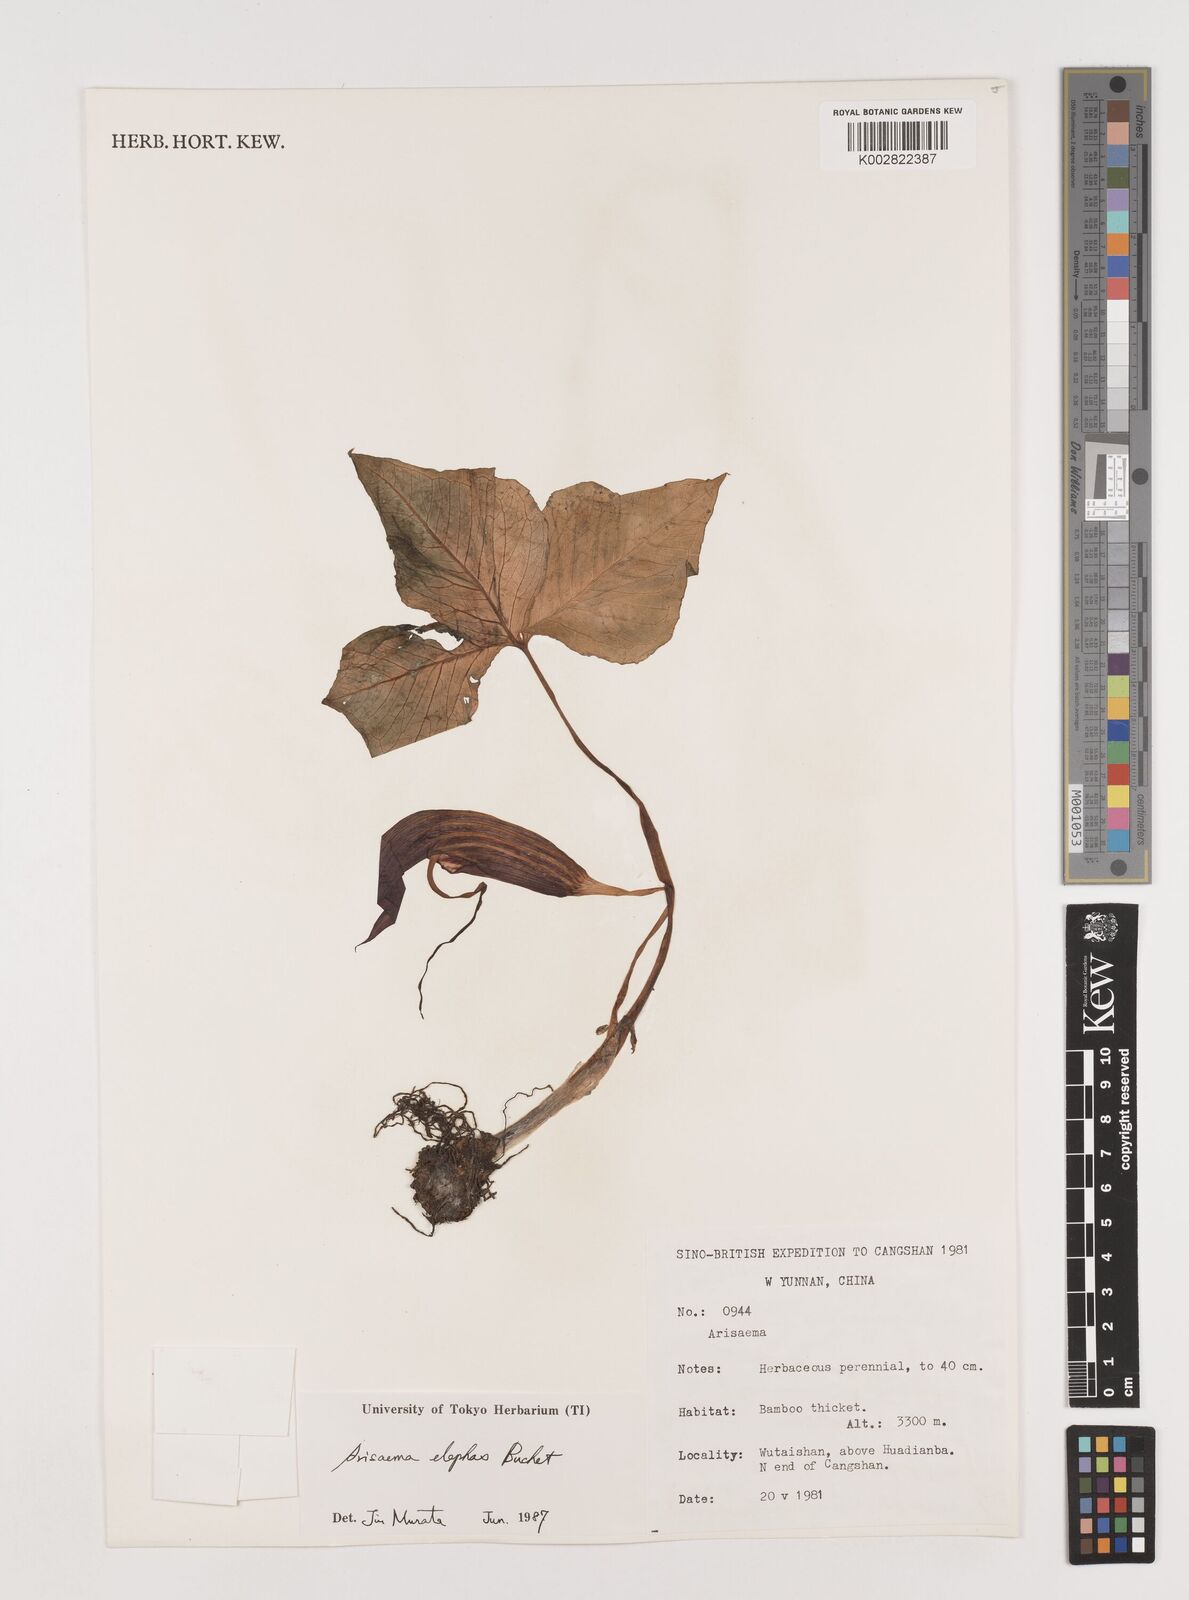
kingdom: Plantae
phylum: Tracheophyta
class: Liliopsida
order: Alismatales
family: Araceae
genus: Arisaema
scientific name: Arisaema elephas
